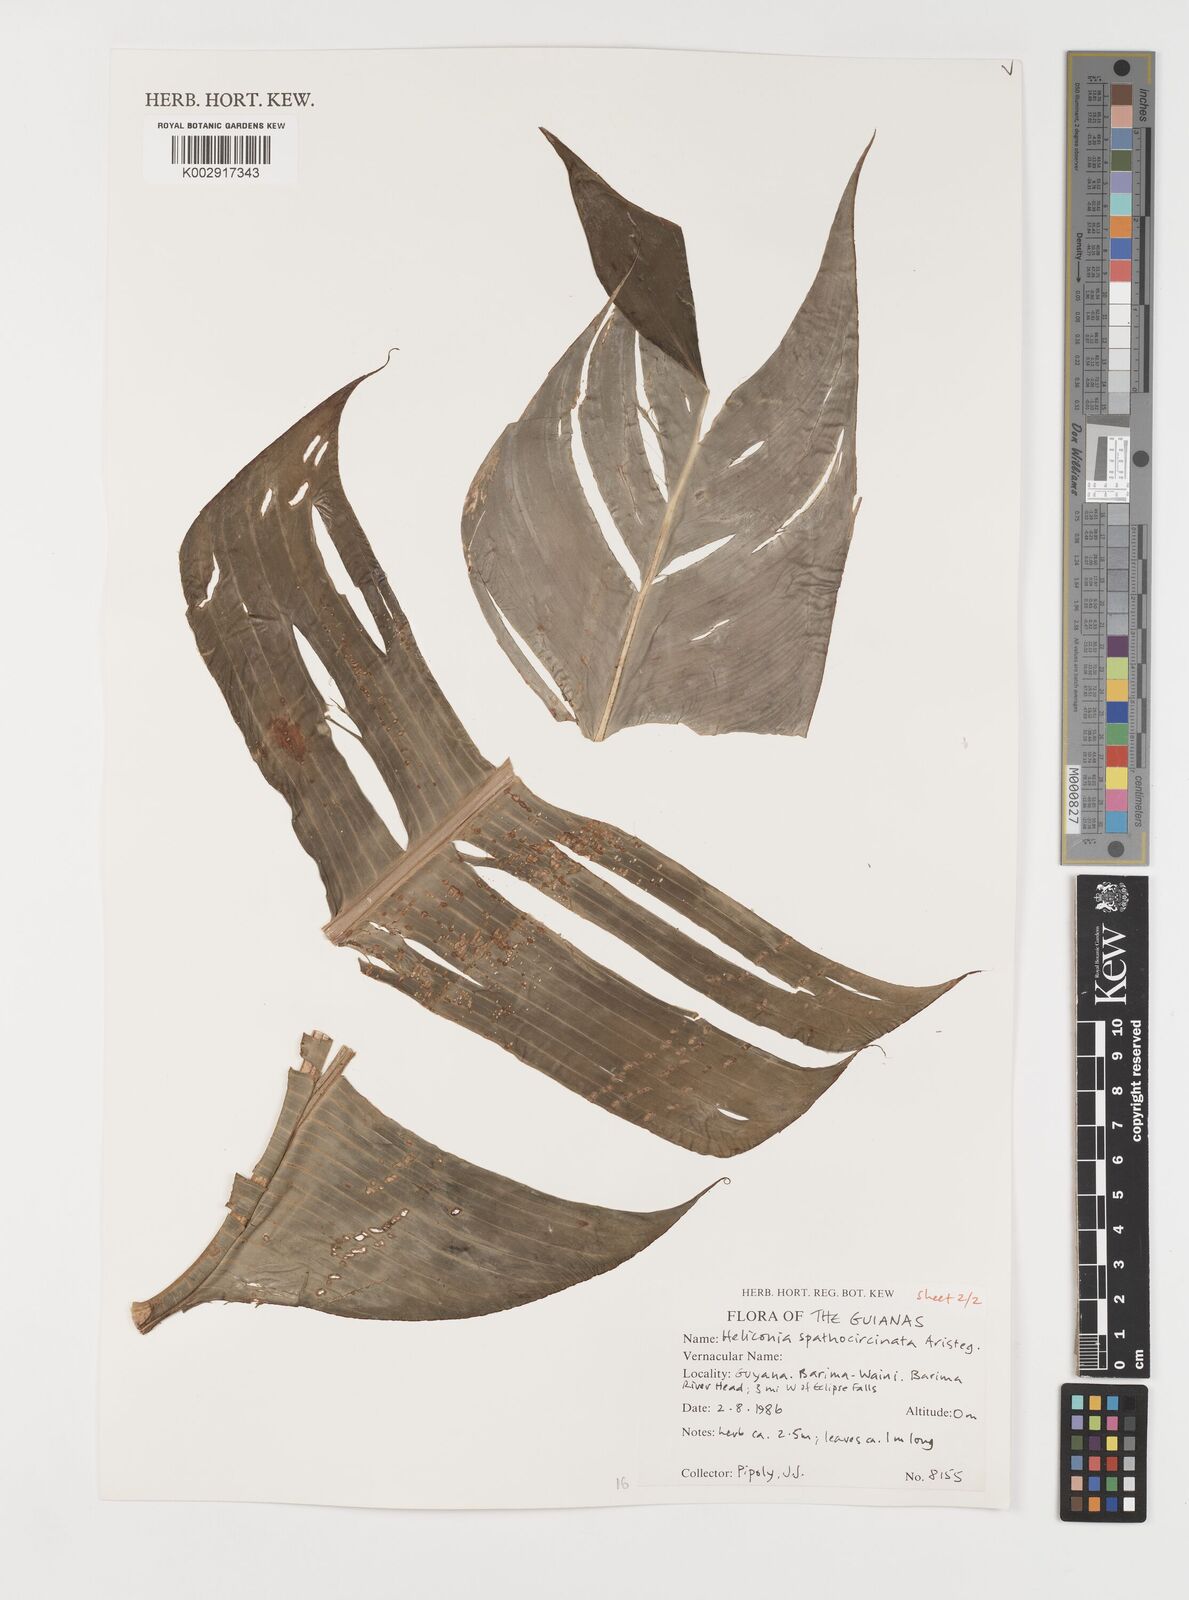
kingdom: Plantae
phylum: Tracheophyta
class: Liliopsida
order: Zingiberales
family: Heliconiaceae
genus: Heliconia
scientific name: Heliconia spathocircinata
